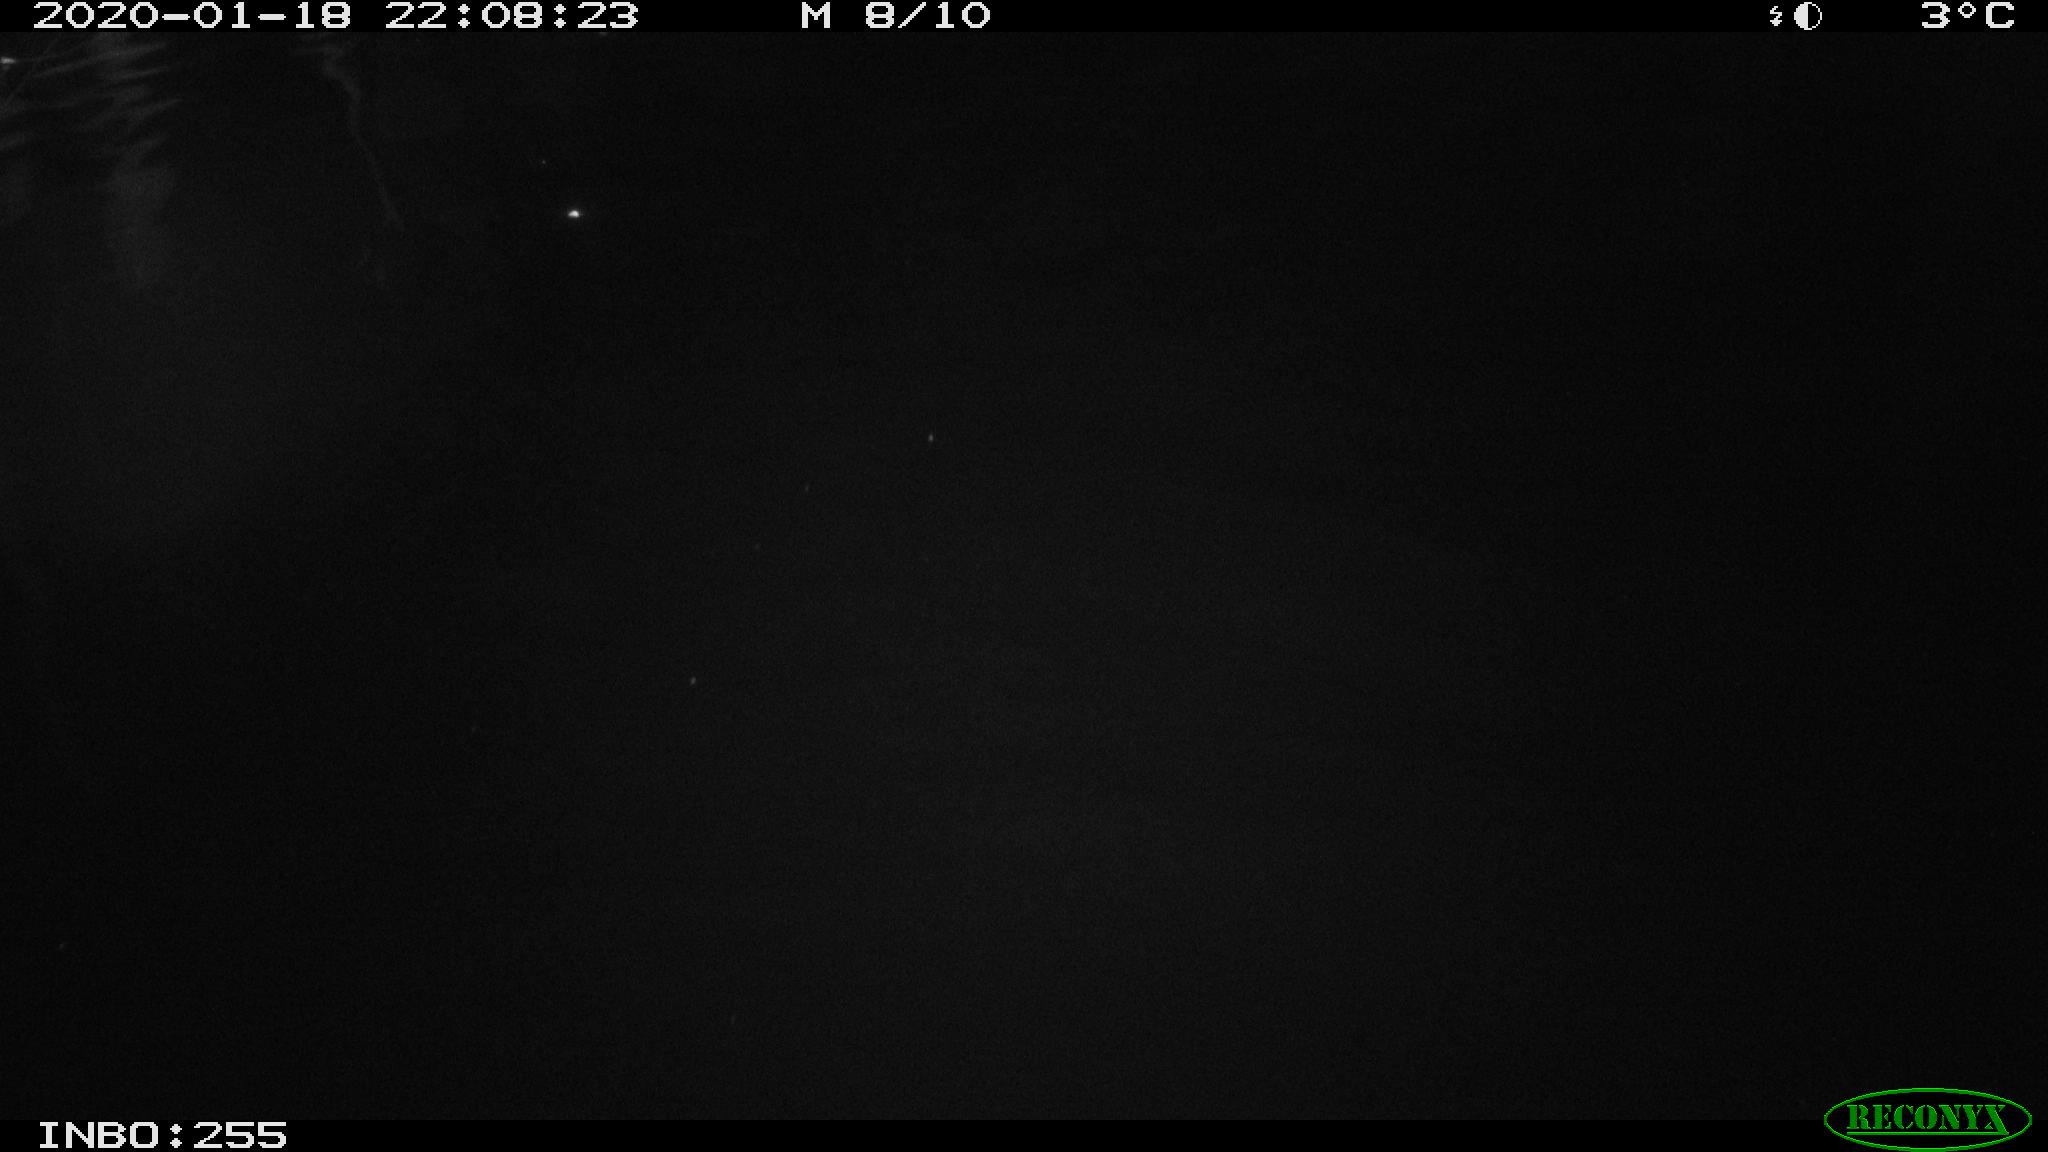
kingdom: Animalia
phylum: Chordata
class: Mammalia
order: Rodentia
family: Cricetidae
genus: Ondatra
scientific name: Ondatra zibethicus
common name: Muskrat
